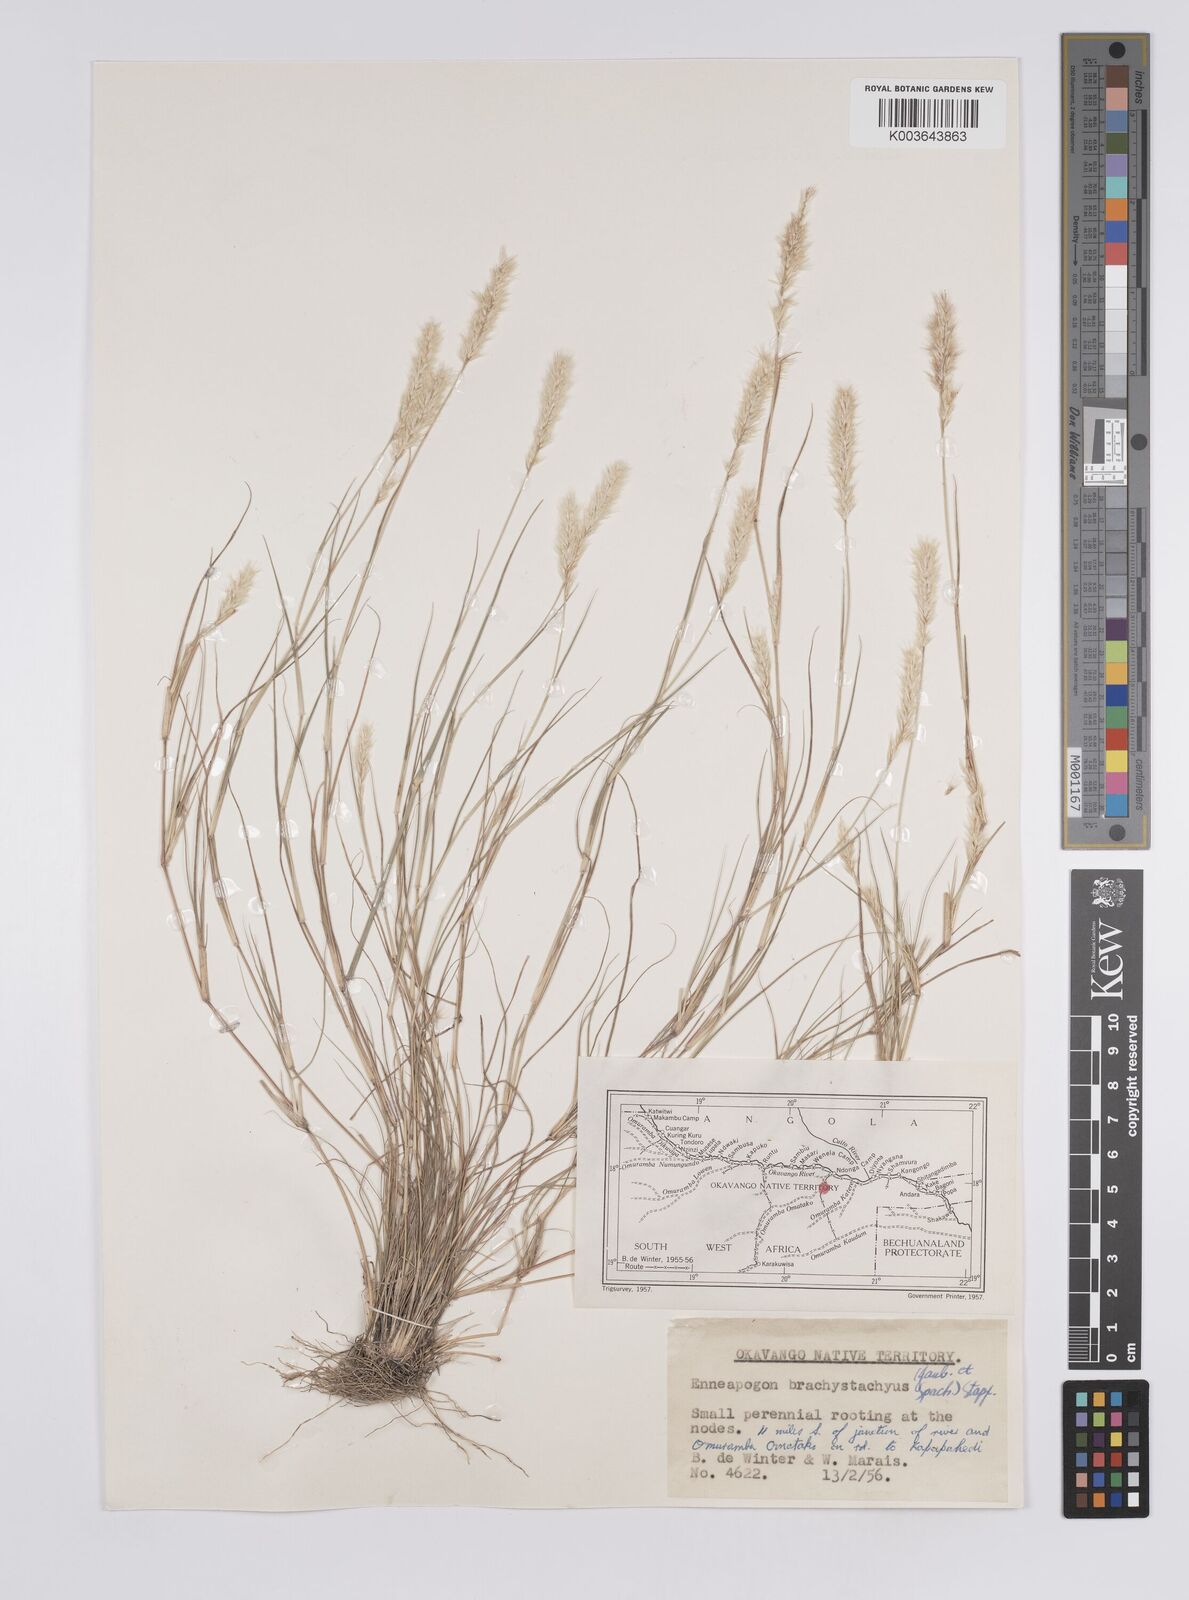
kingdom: Plantae
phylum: Tracheophyta
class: Liliopsida
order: Poales
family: Poaceae
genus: Enneapogon
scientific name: Enneapogon desvauxii
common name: Feather pappus grass
